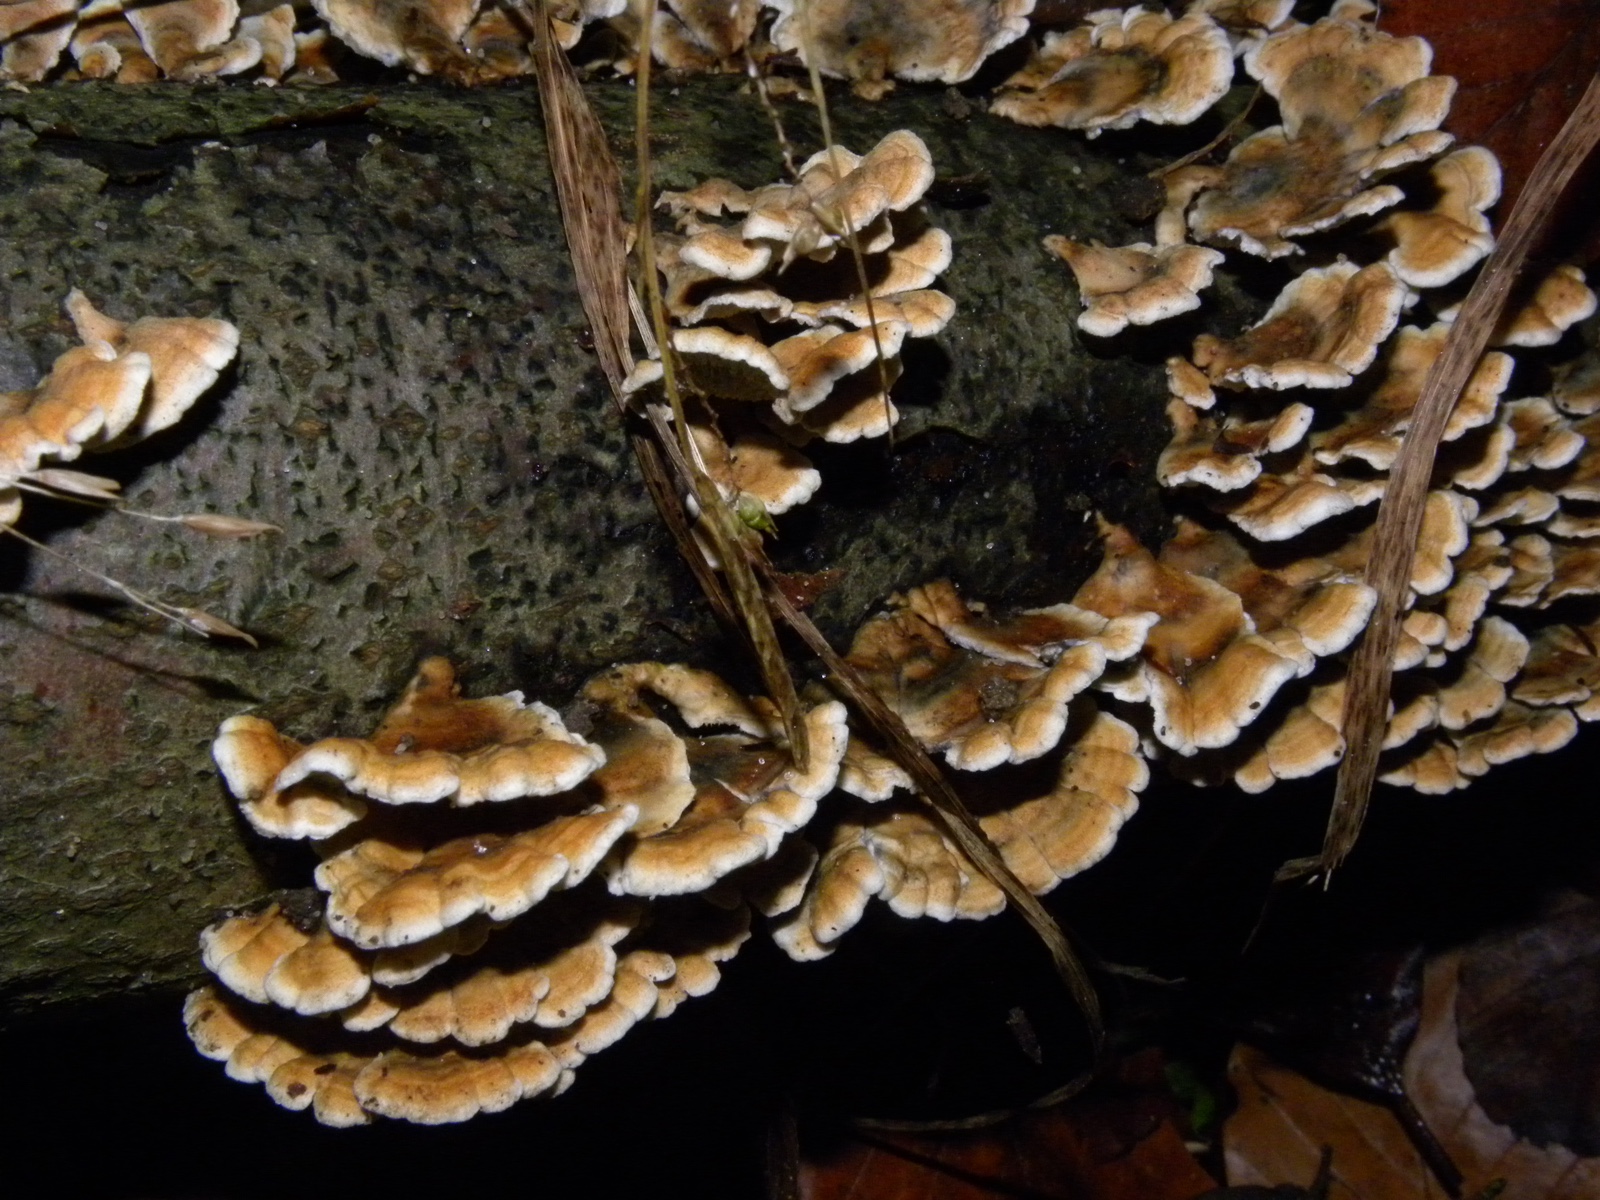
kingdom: Fungi
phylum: Basidiomycota
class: Agaricomycetes
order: Amylocorticiales
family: Amylocorticiaceae
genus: Plicaturopsis
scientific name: Plicaturopsis crispa
